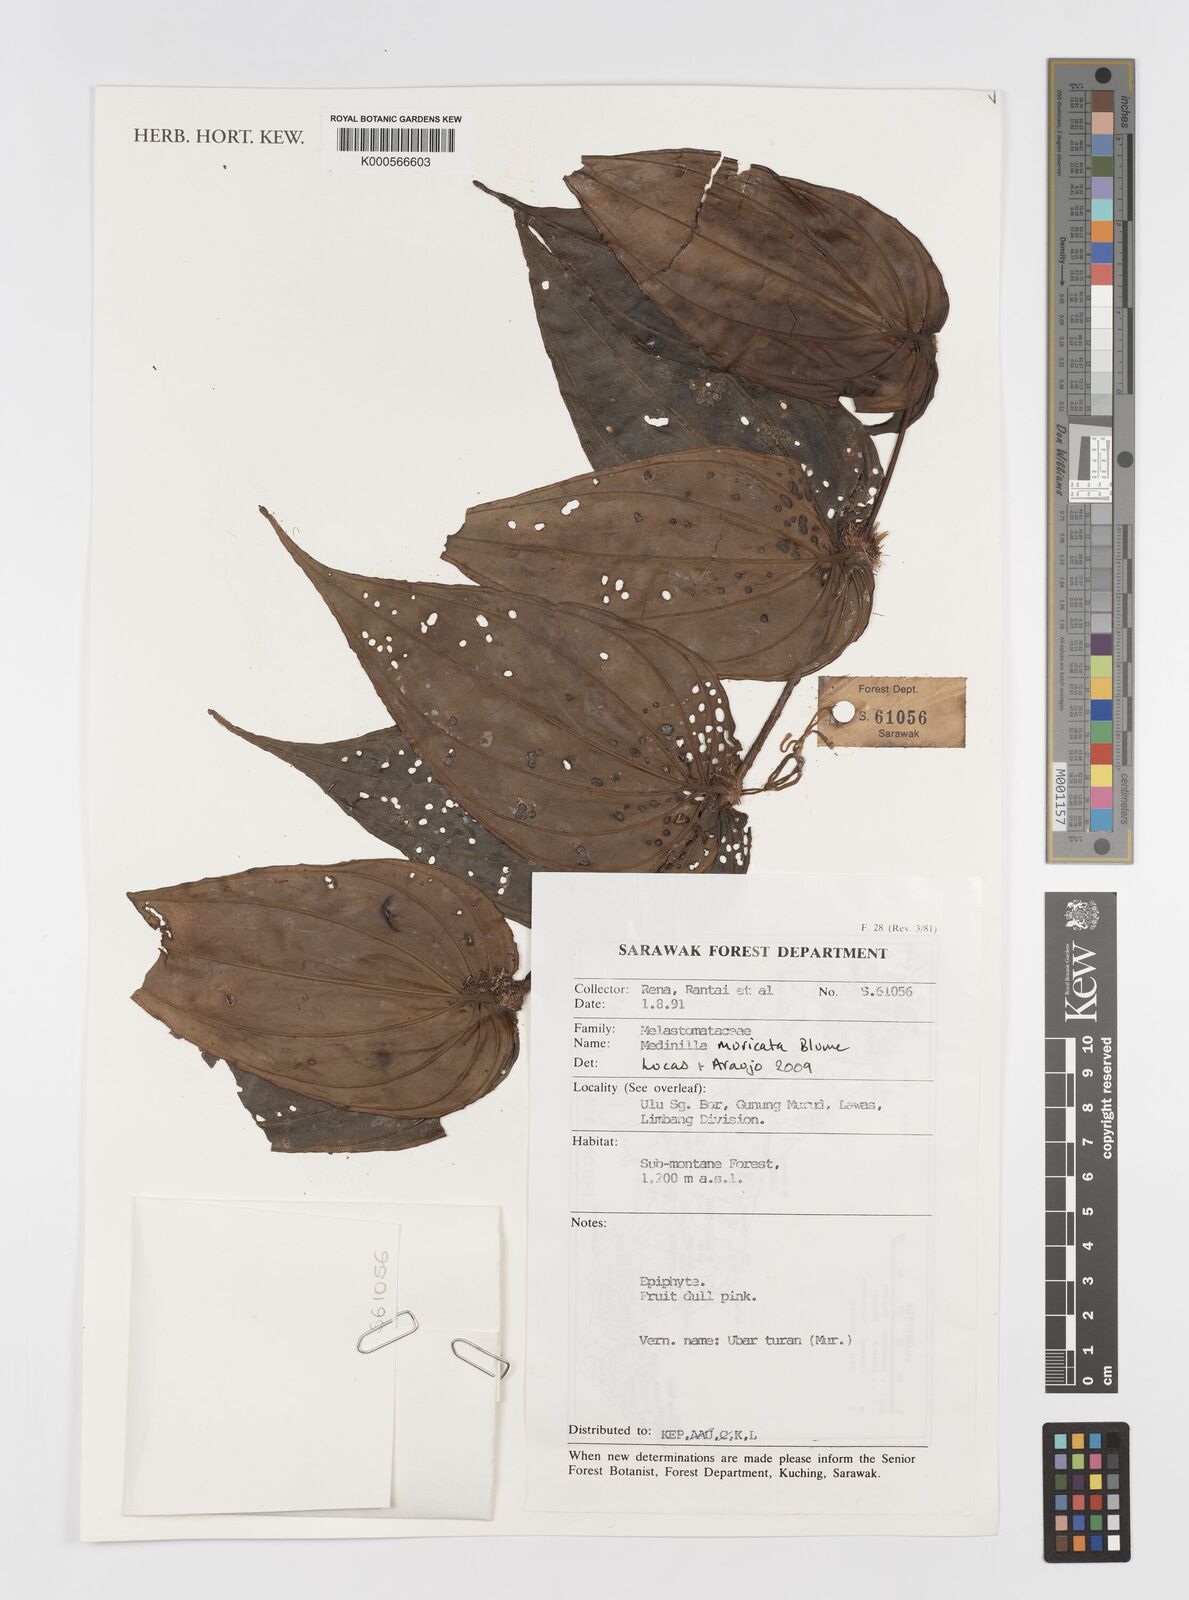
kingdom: Plantae
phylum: Tracheophyta
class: Magnoliopsida
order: Myrtales
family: Melastomataceae
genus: Medinilla
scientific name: Medinilla muricata
